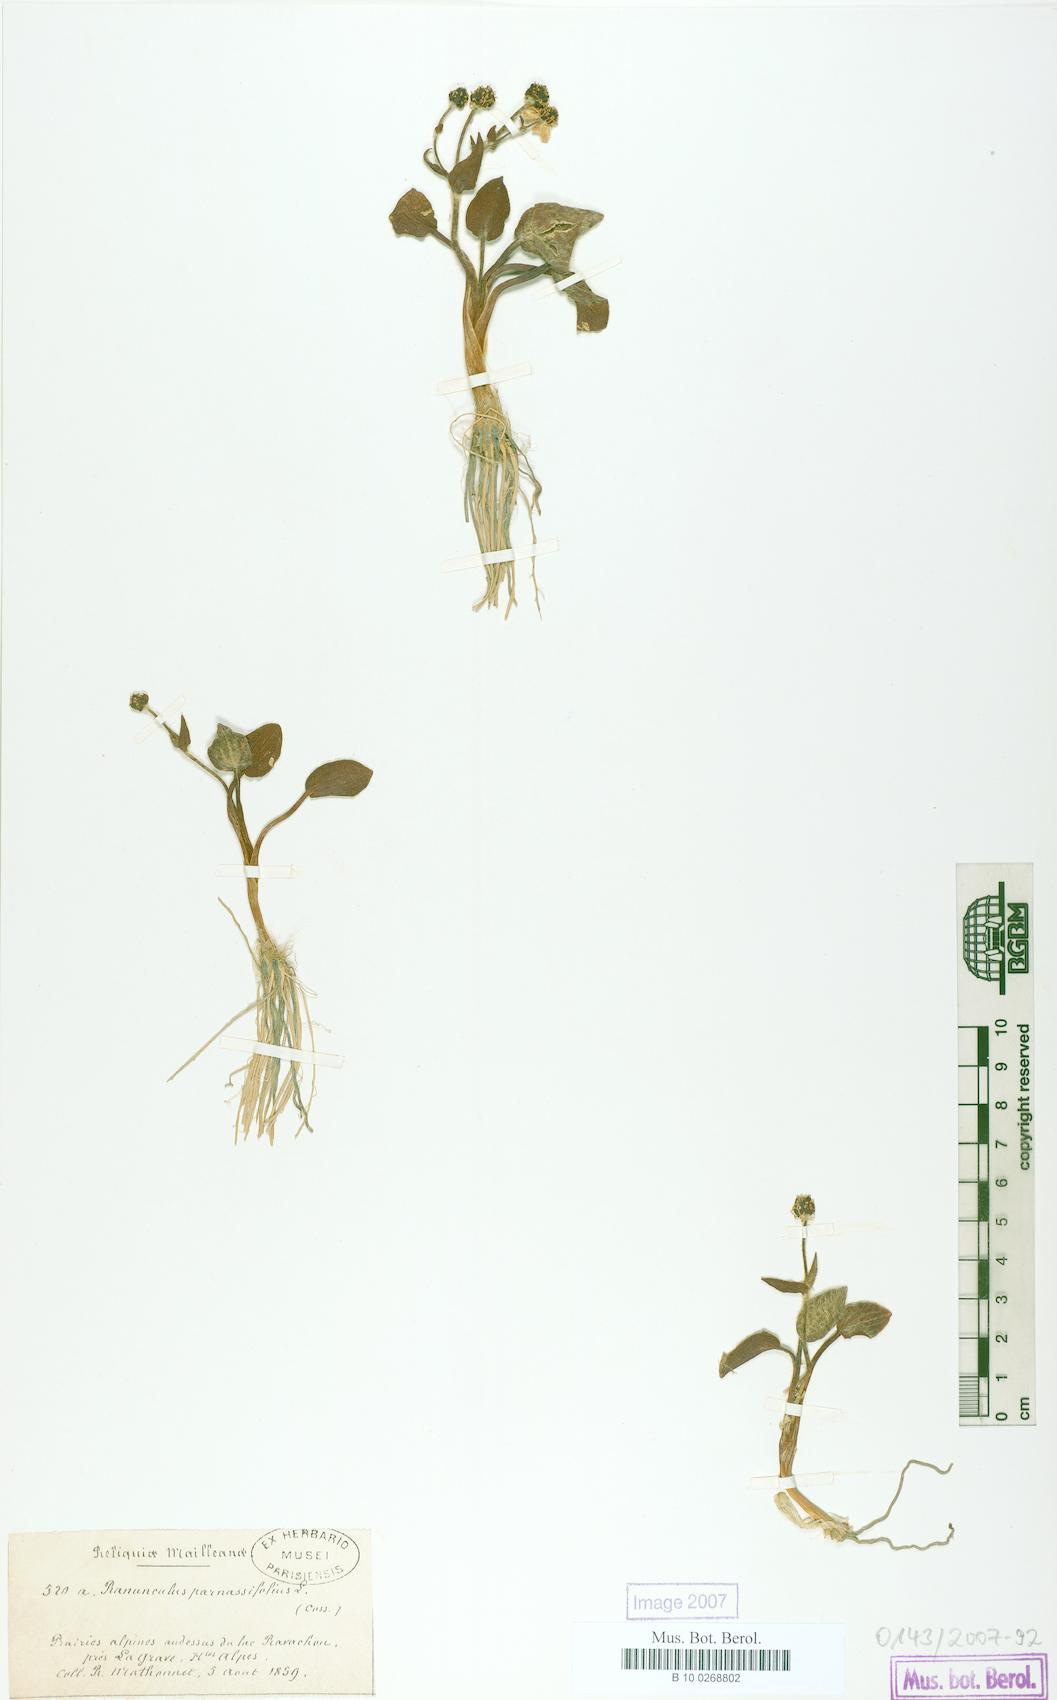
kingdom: Plantae
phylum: Tracheophyta
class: Magnoliopsida
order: Ranunculales
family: Ranunculaceae
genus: Ranunculus
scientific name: Ranunculus parnassiifolius
